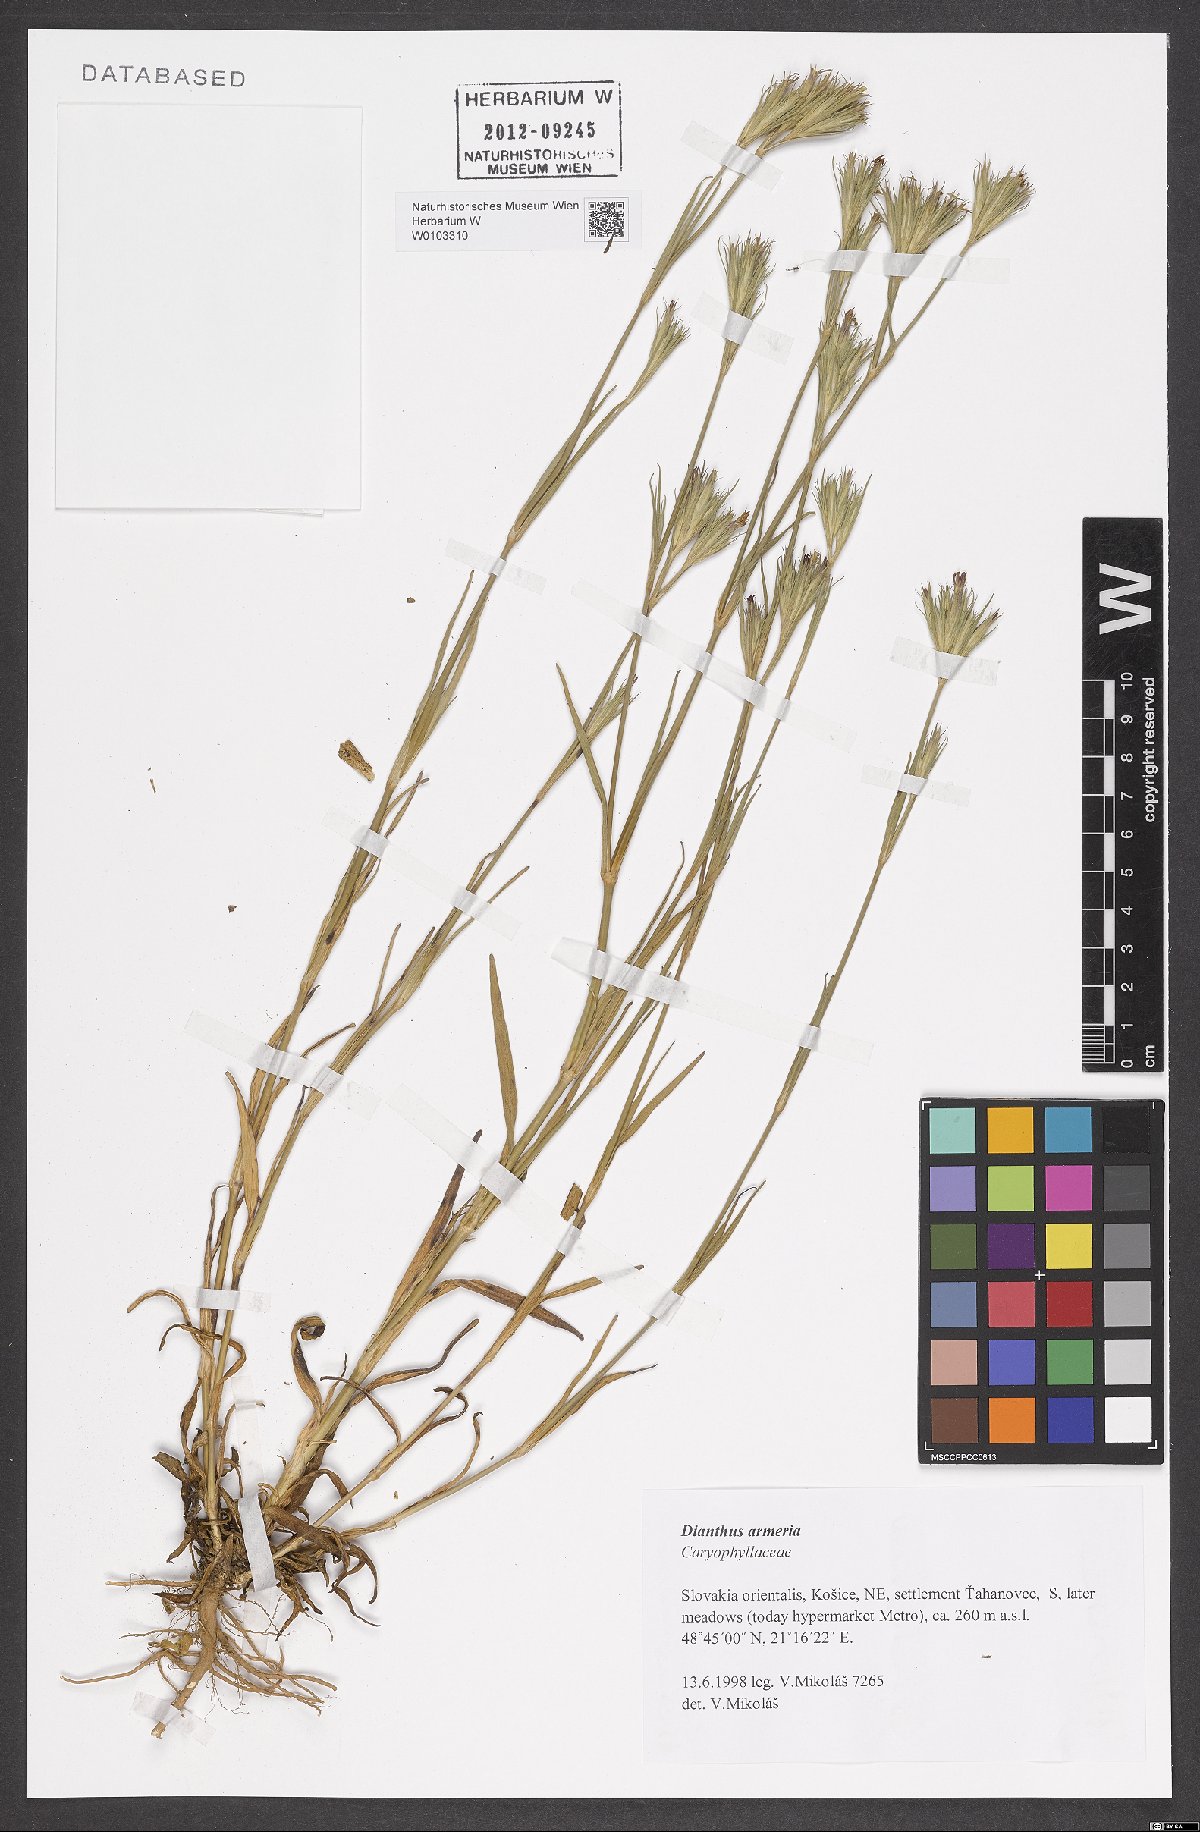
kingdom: Plantae
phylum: Tracheophyta
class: Magnoliopsida
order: Caryophyllales
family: Caryophyllaceae
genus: Dianthus
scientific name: Dianthus armeria
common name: Deptford pink
